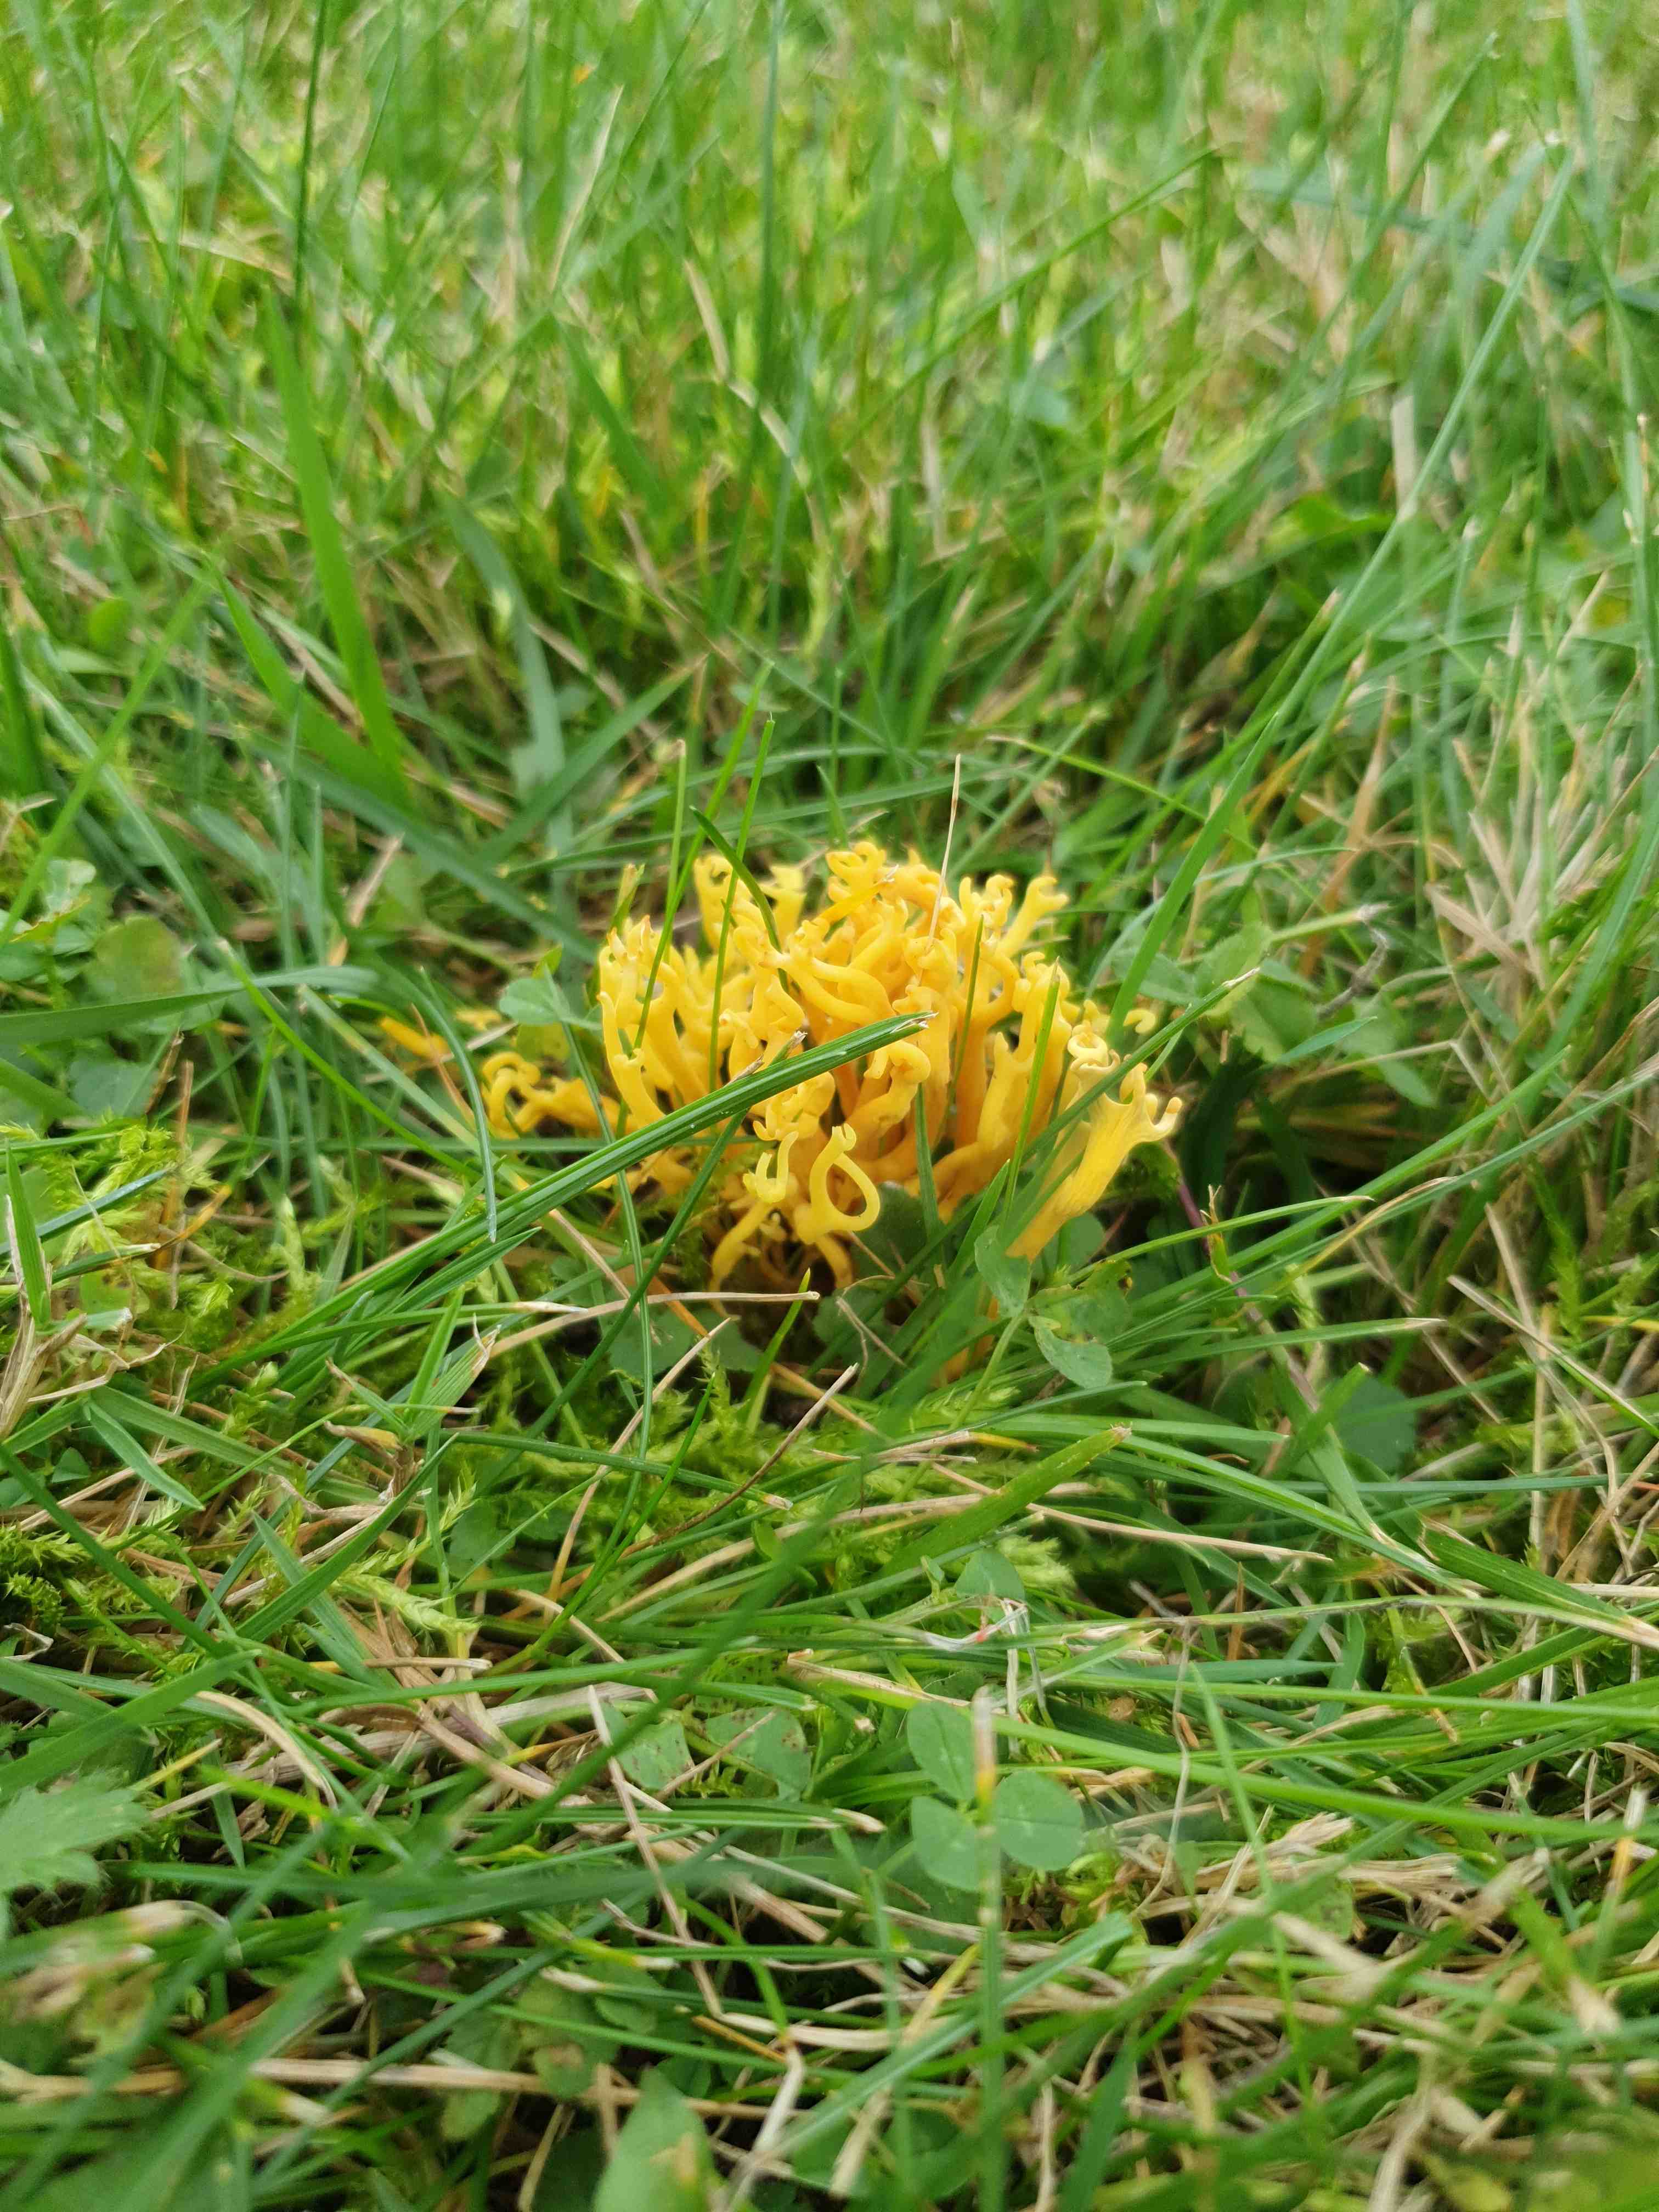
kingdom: Fungi
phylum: Basidiomycota
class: Agaricomycetes
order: Agaricales
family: Clavariaceae
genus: Clavulinopsis
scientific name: Clavulinopsis corniculata
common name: eng-køllesvamp
